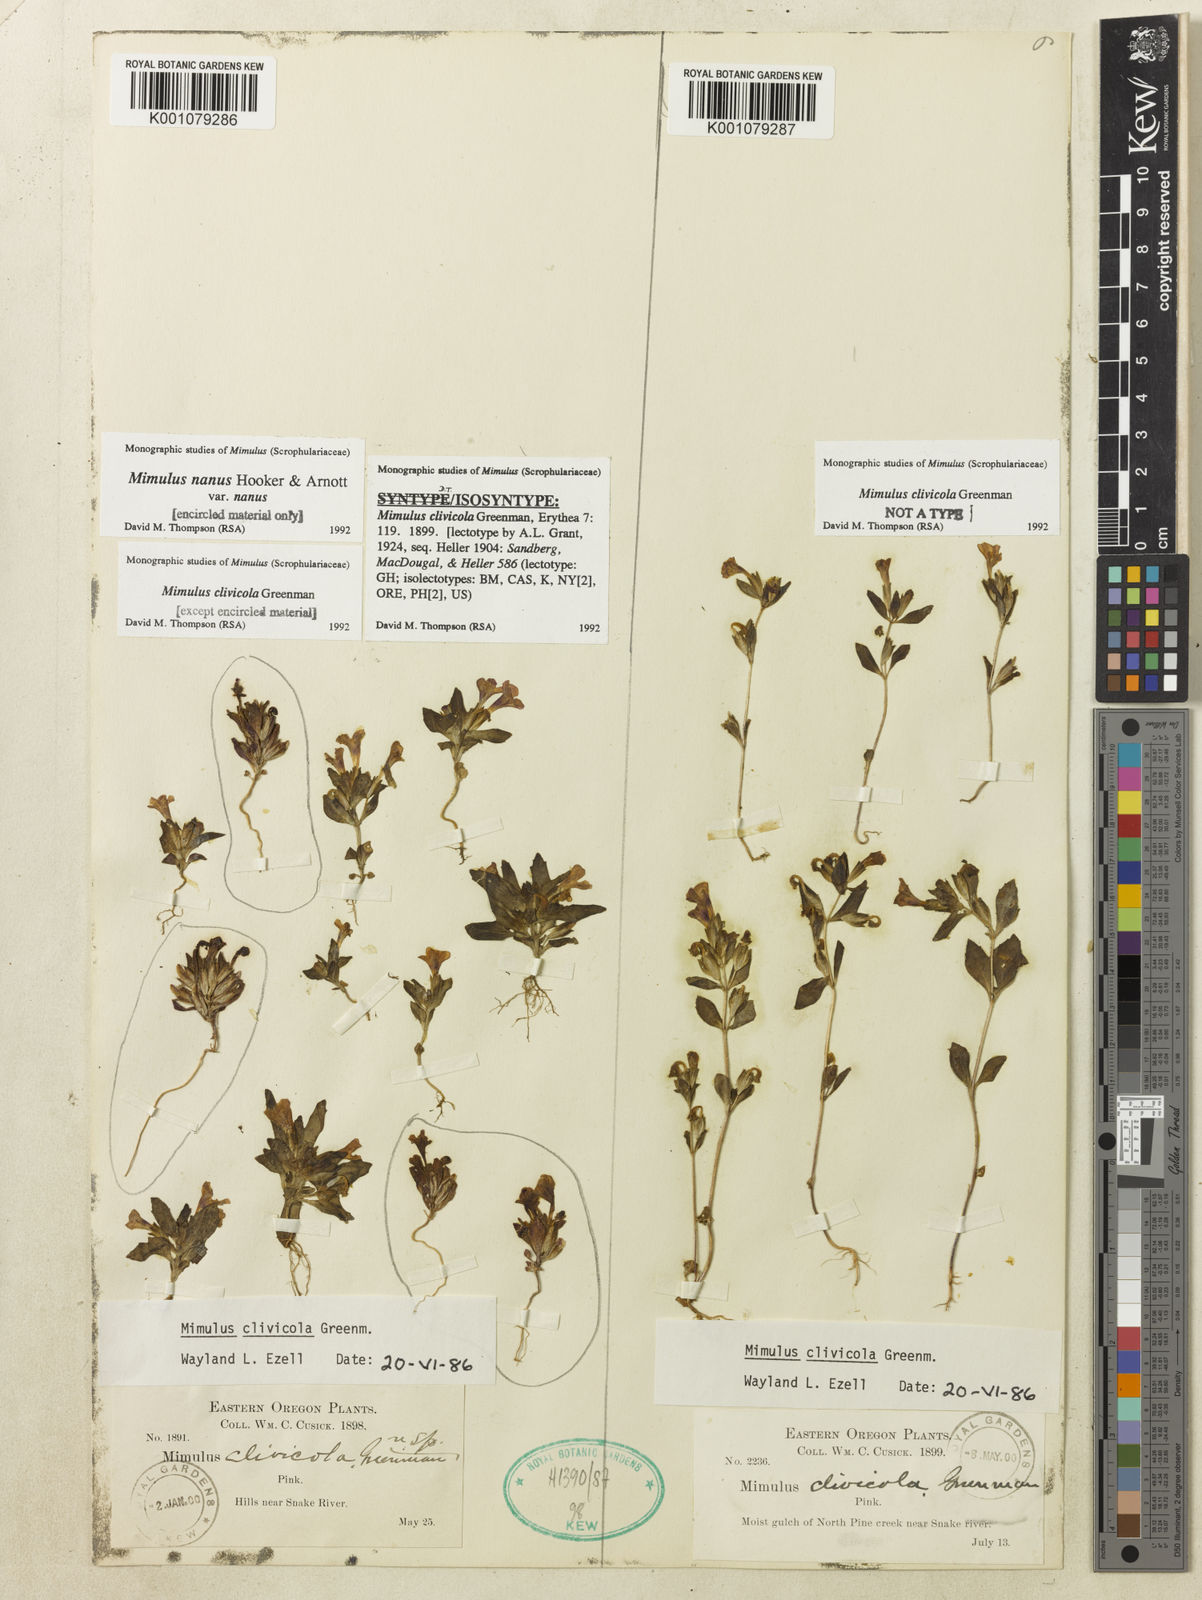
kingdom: Plantae
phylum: Tracheophyta
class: Magnoliopsida
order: Lamiales
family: Phrymaceae
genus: Diplacus
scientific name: Diplacus clivicola
